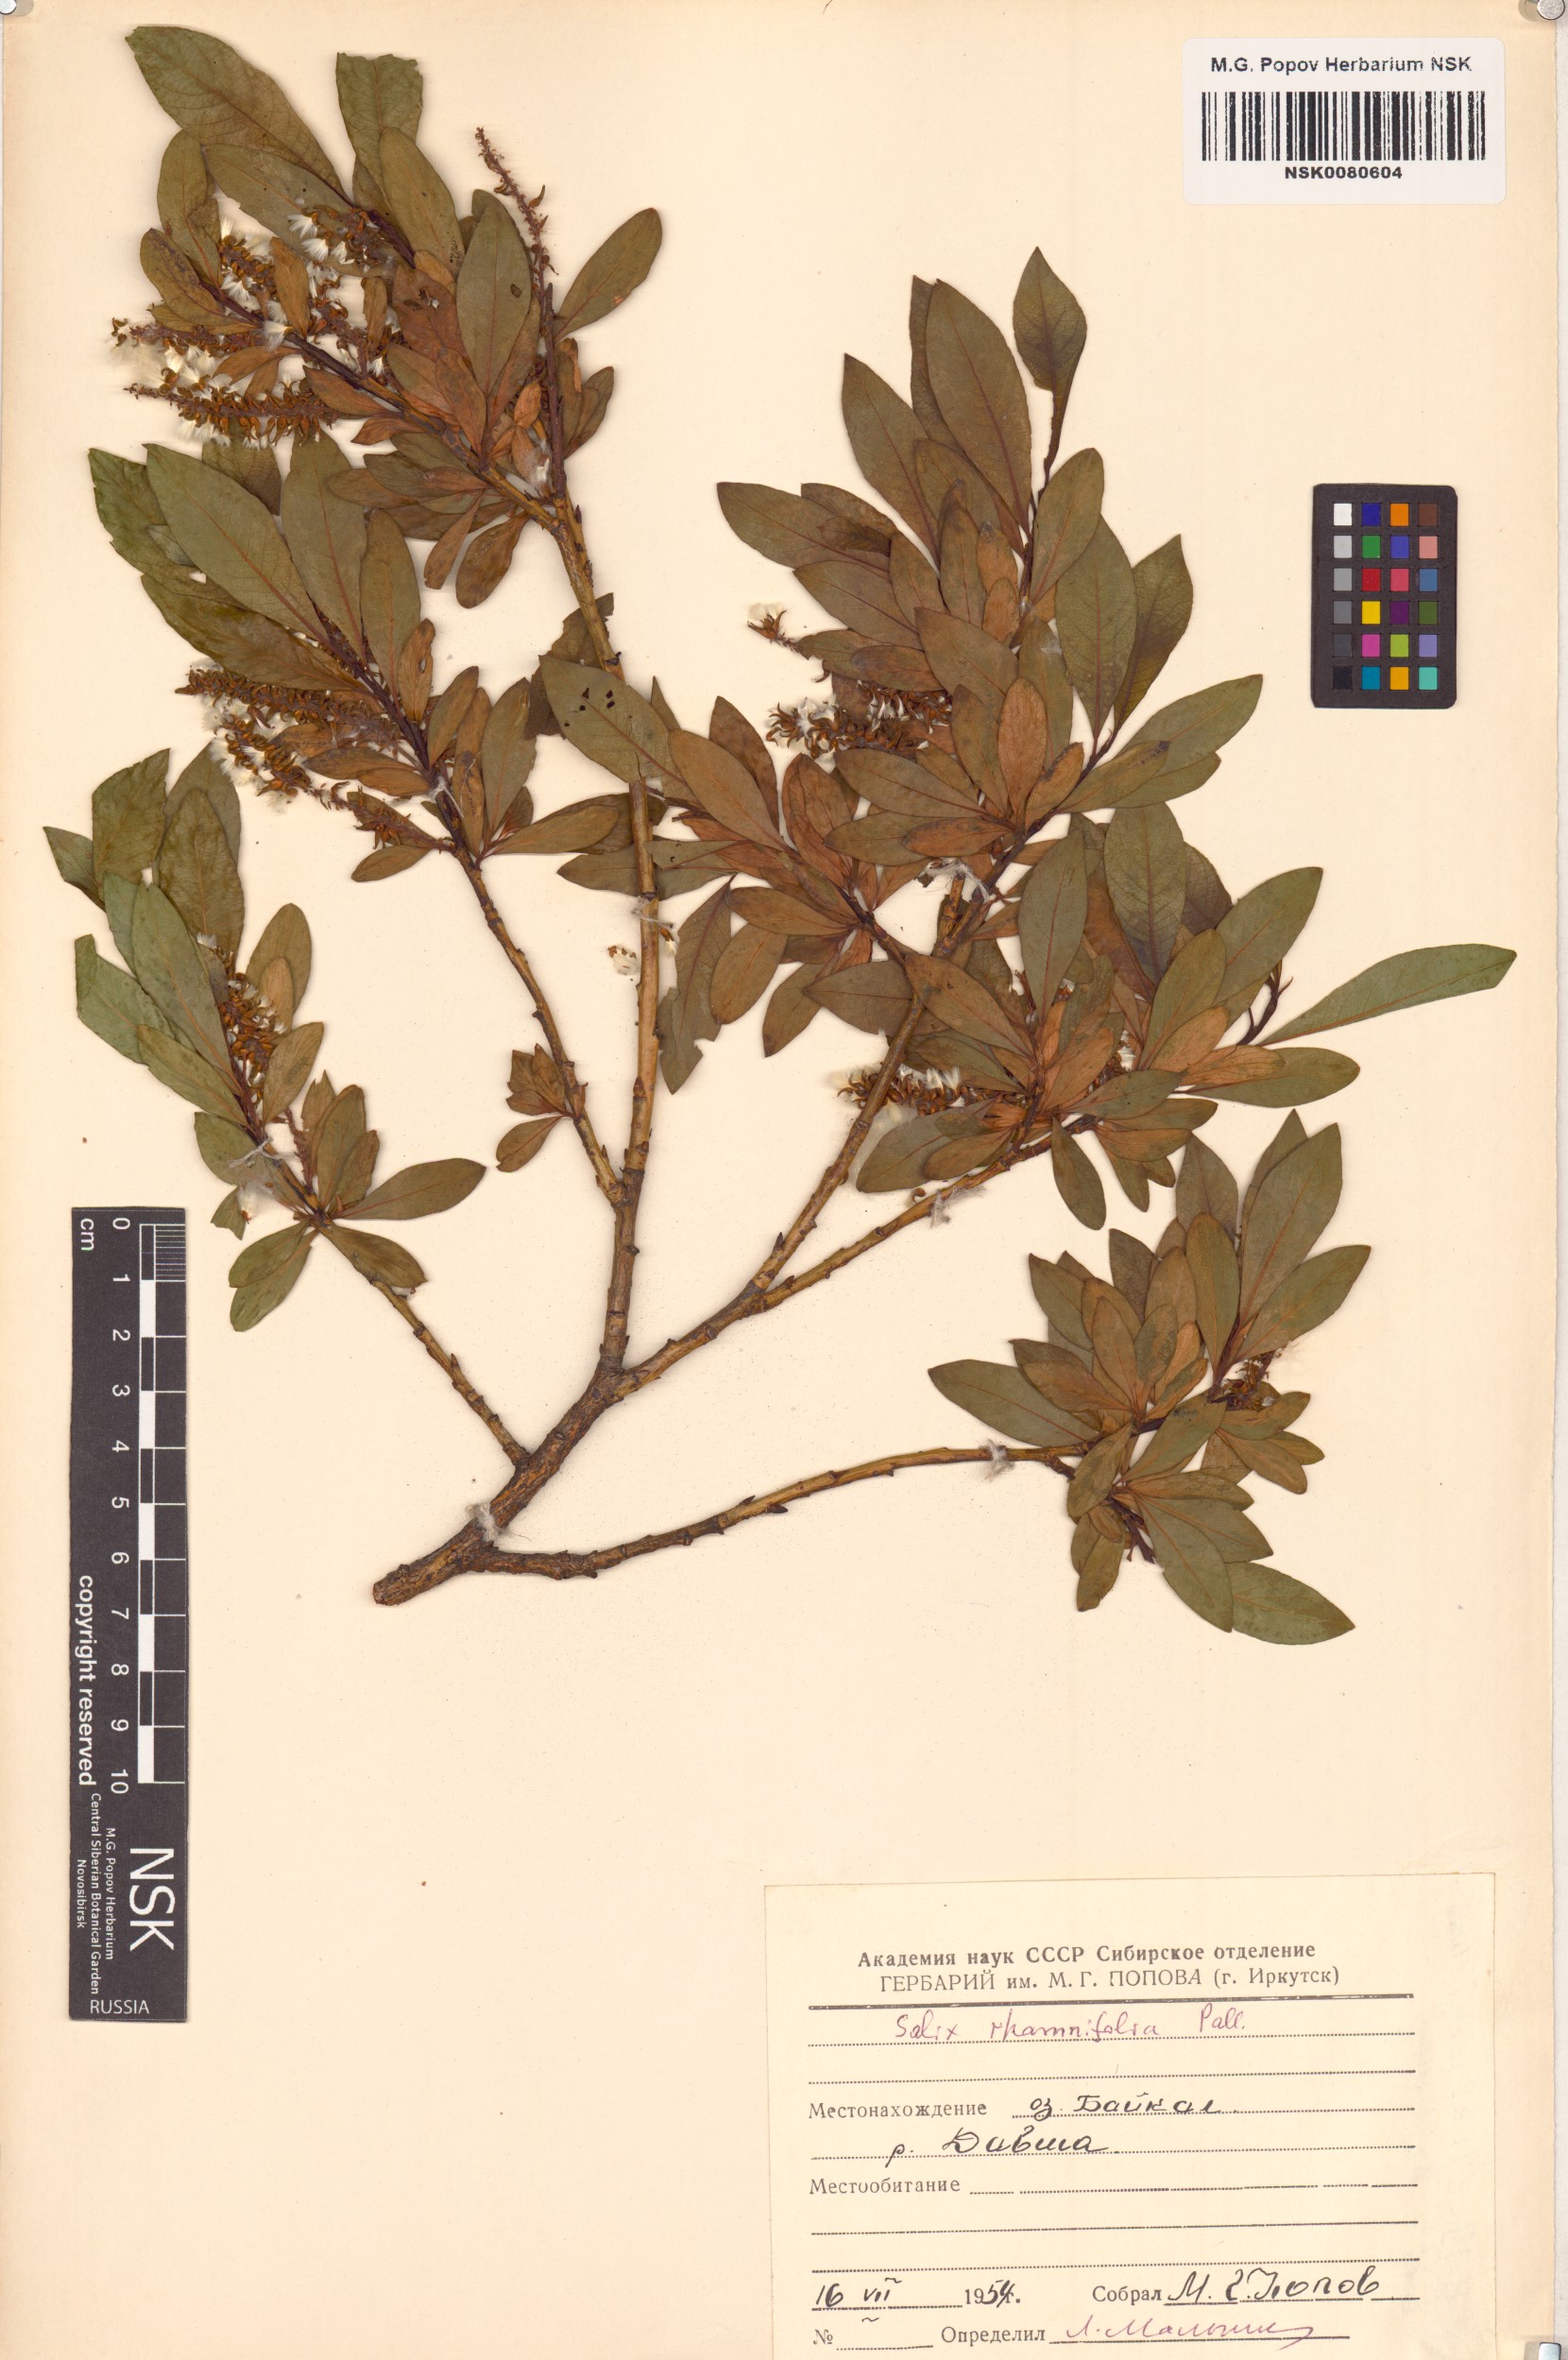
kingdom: Plantae
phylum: Tracheophyta
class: Magnoliopsida
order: Malpighiales
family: Salicaceae
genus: Salix
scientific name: Salix rhamnifolia
